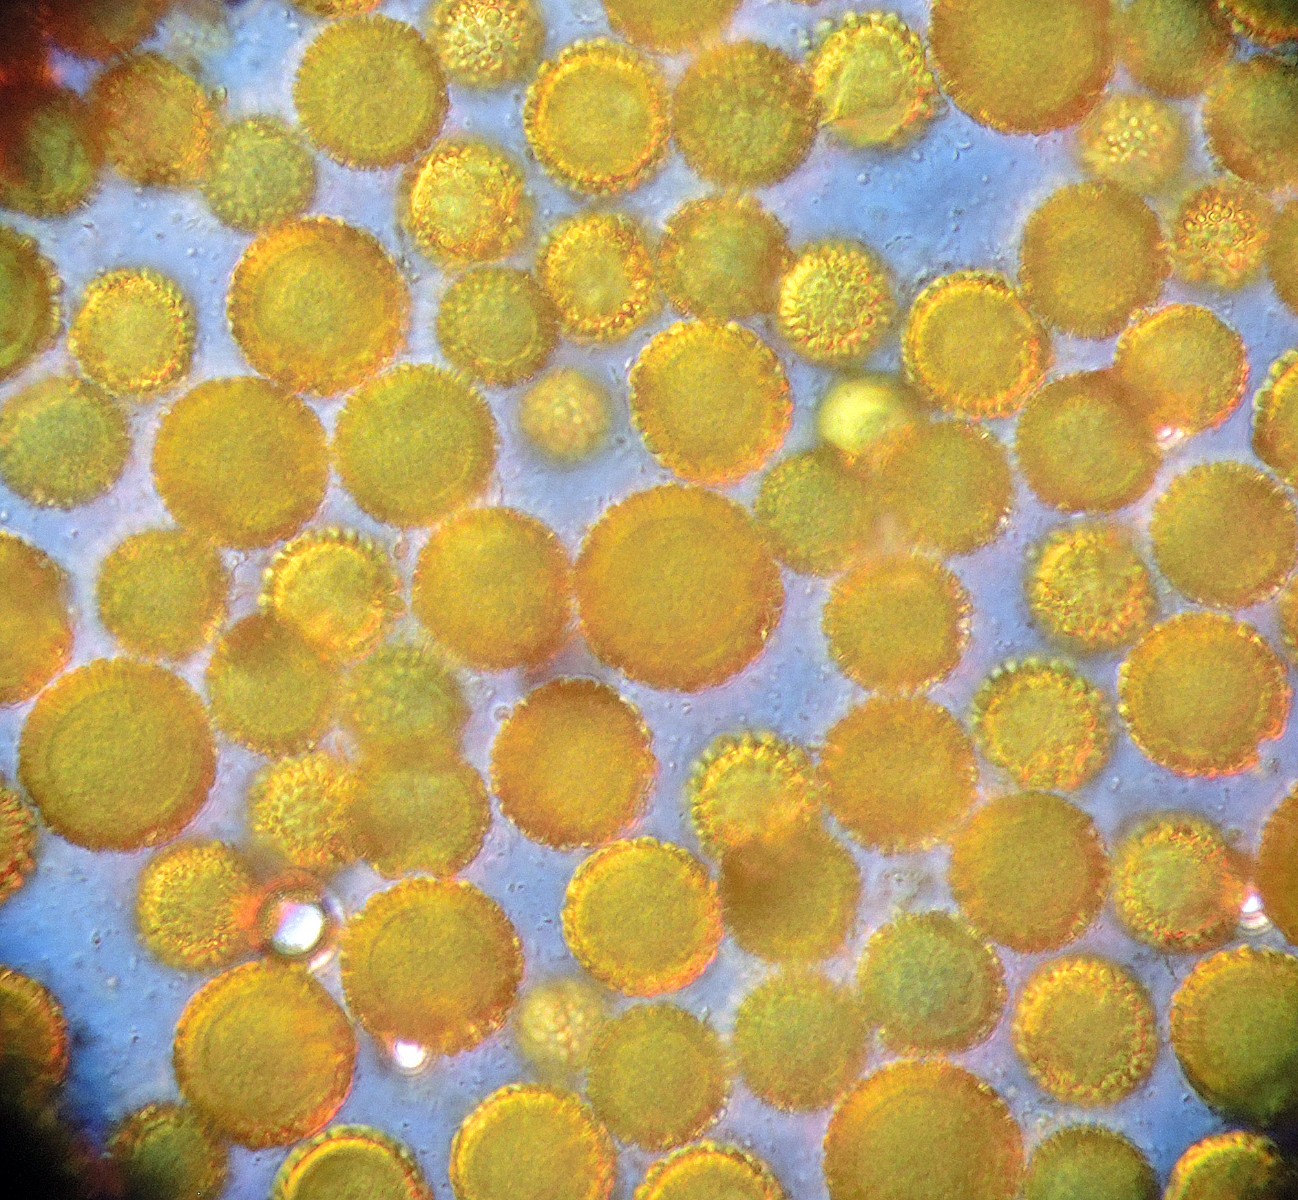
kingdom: Fungi
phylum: Ascomycota
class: Sordariomycetes
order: Hypocreales
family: Hypocreaceae
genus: Hypomyces
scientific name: Hypomyces chrysospermus
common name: gulskimmel-snylteskorpe
